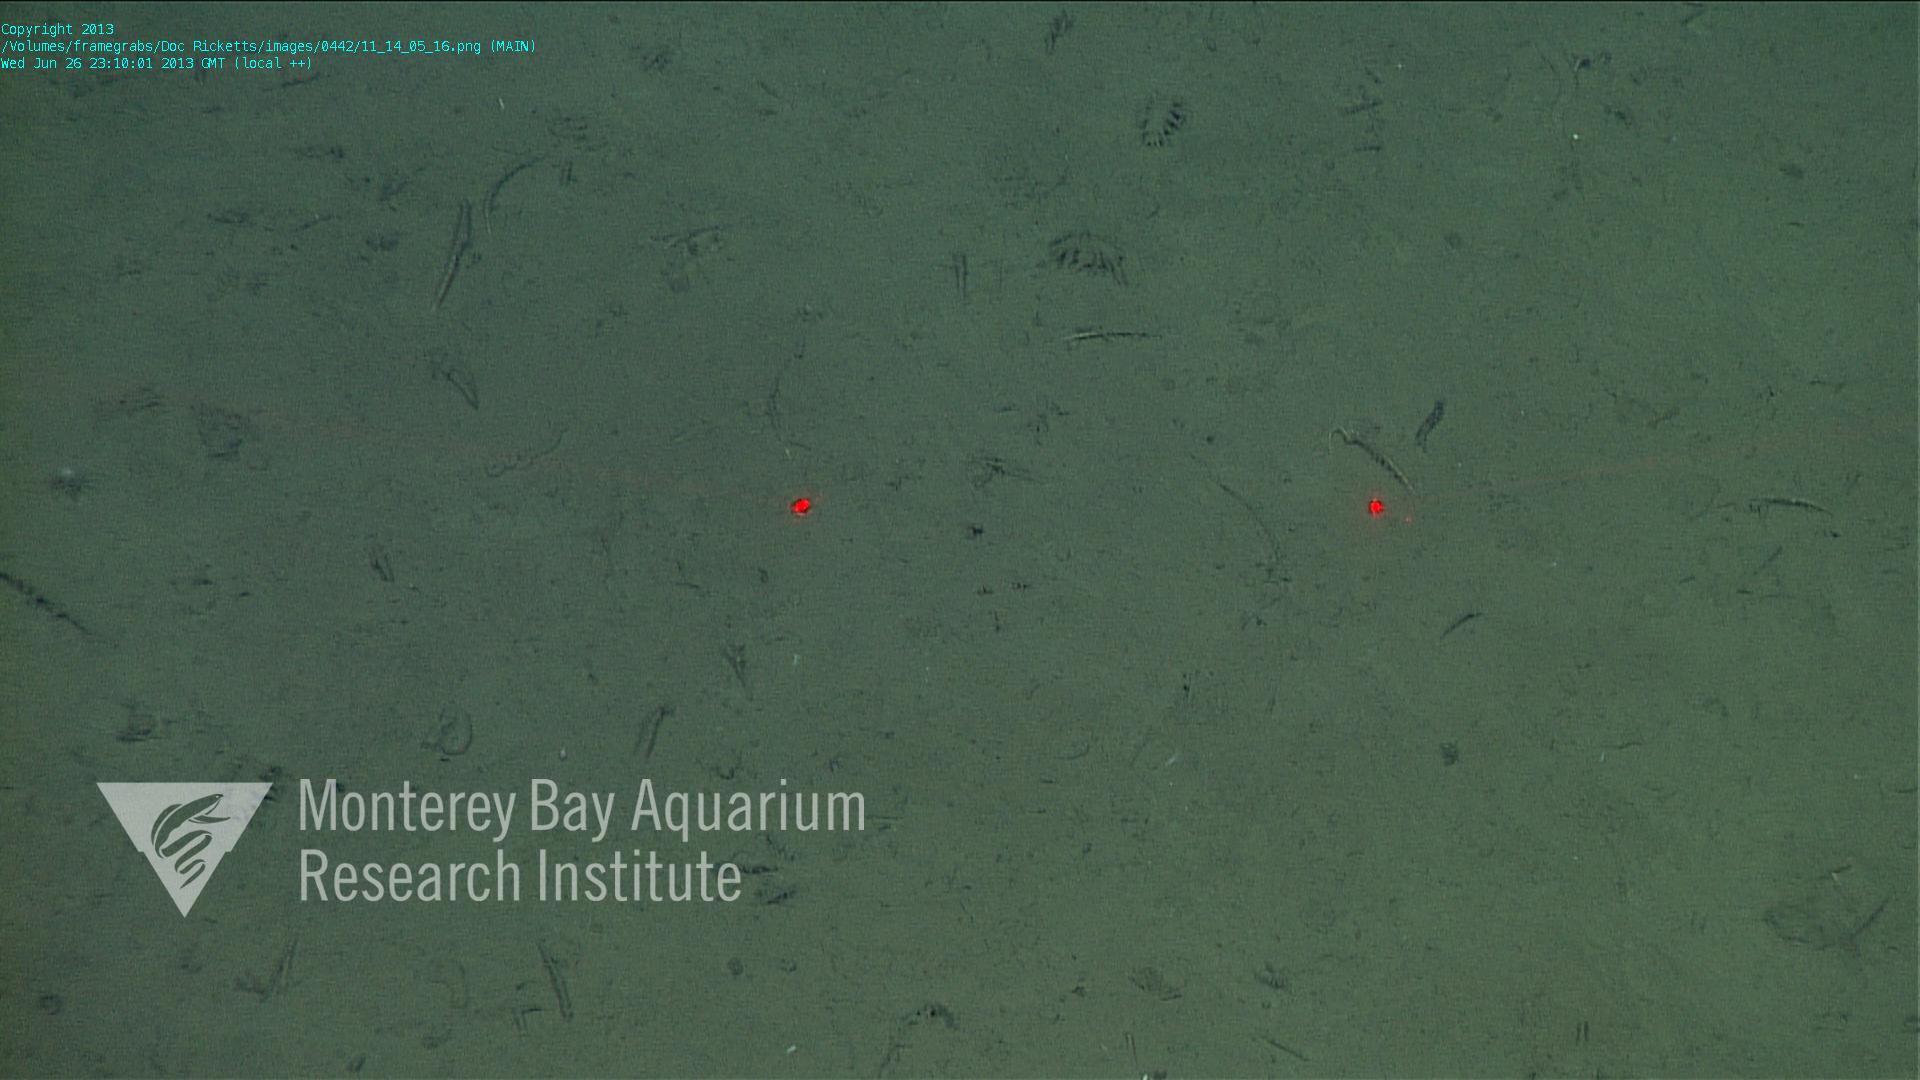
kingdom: Animalia
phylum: Porifera
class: Demospongiae
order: Poecilosclerida
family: Cladorhizidae
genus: Cladorhiza
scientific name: Cladorhiza
